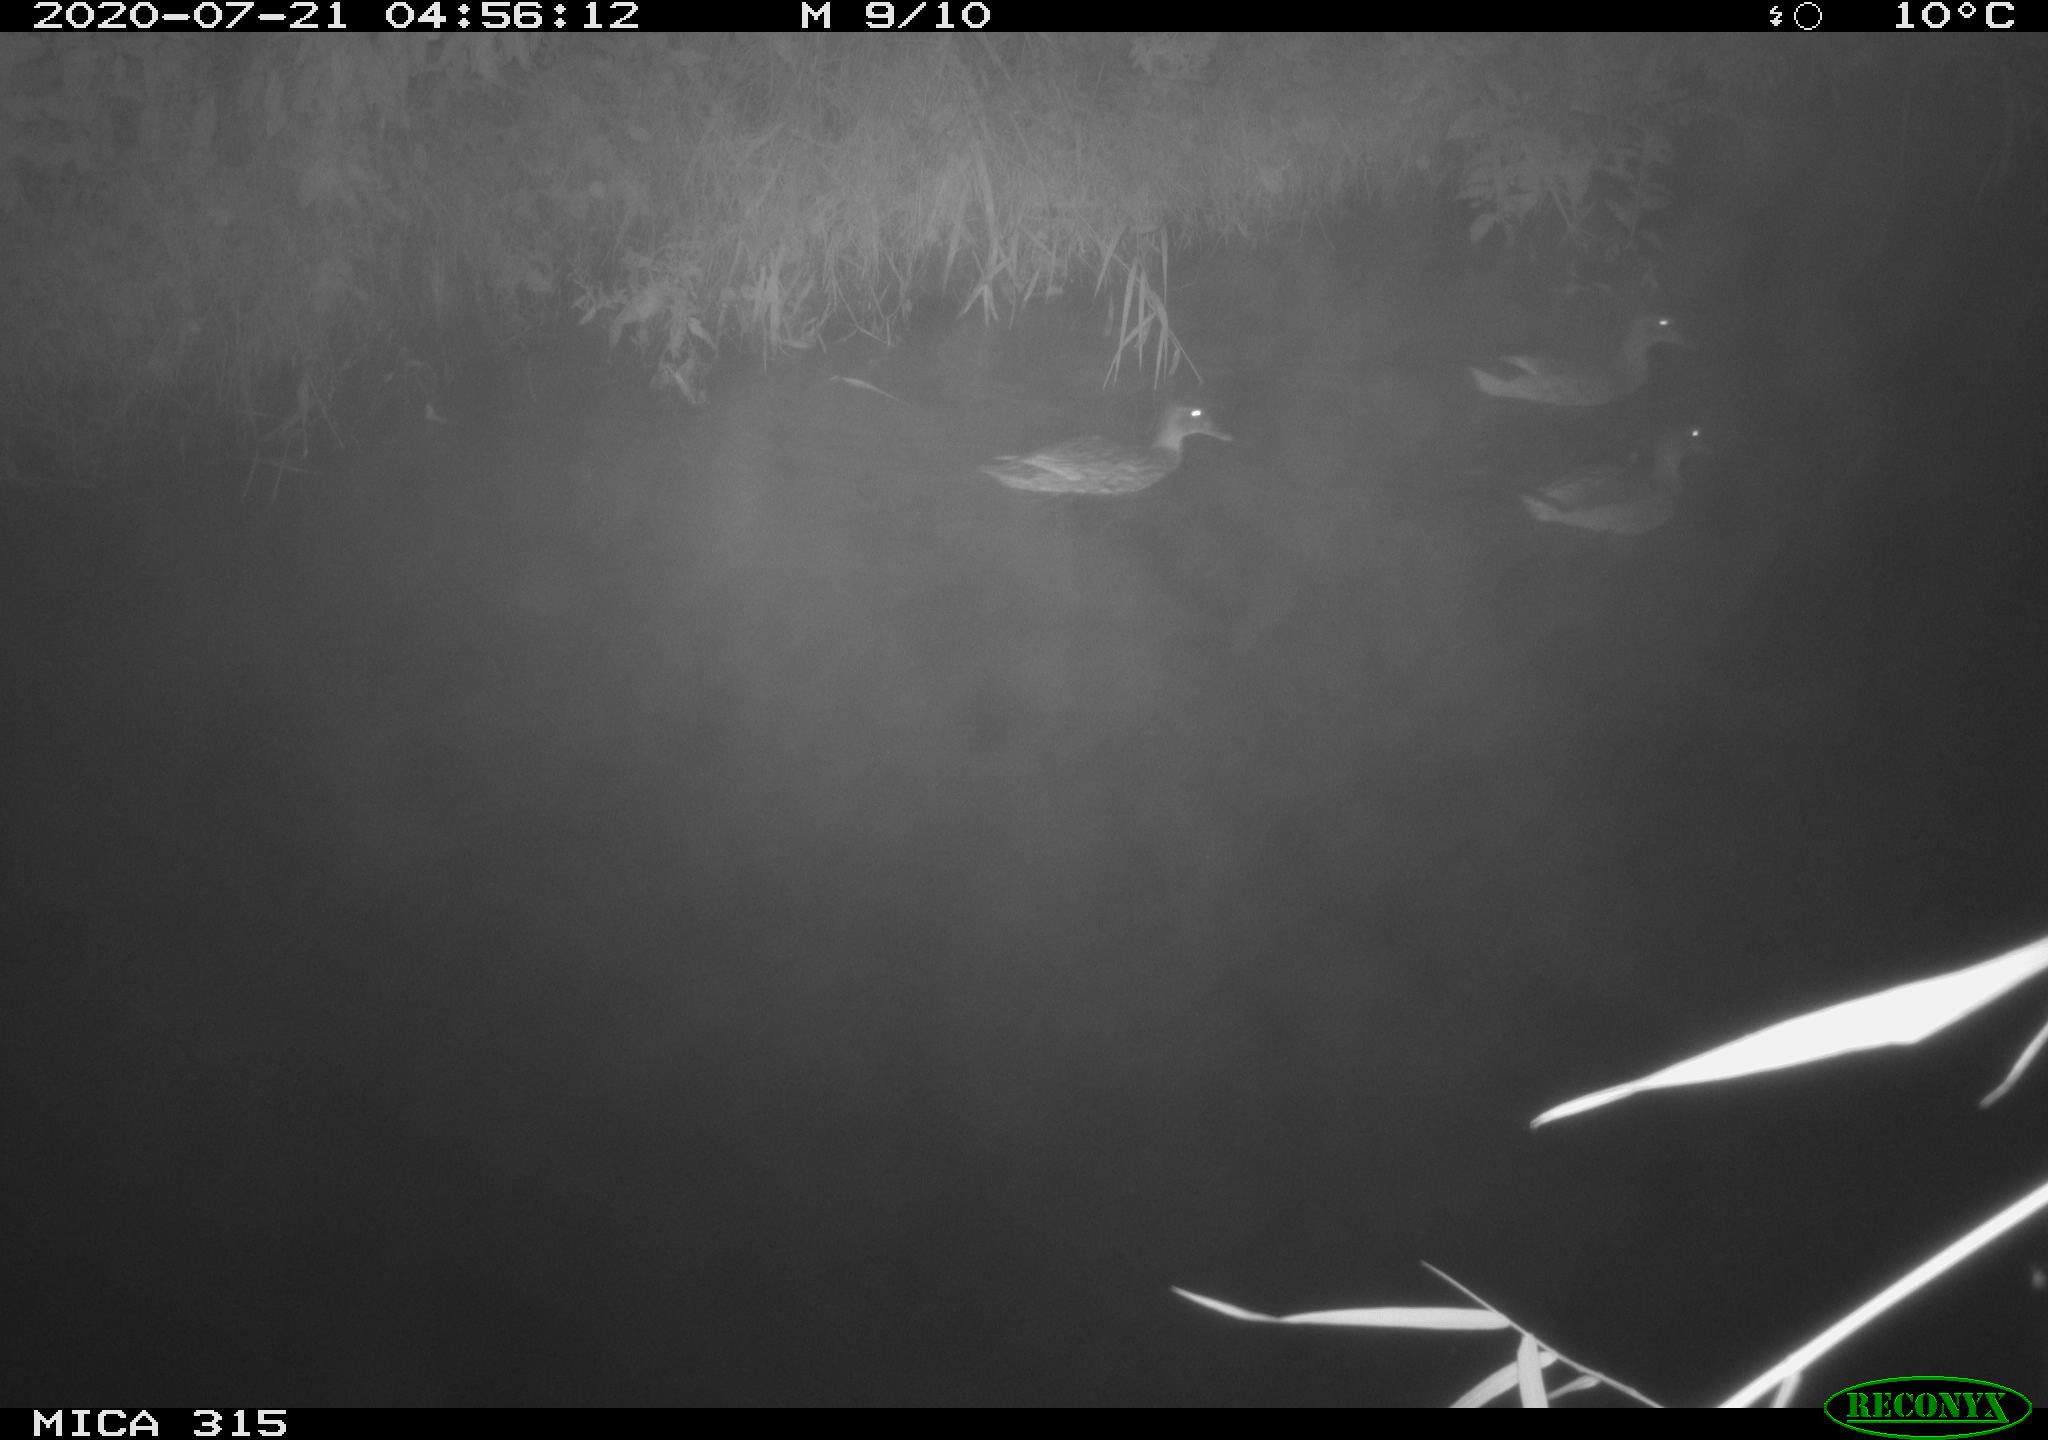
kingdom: Animalia
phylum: Chordata
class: Aves
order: Anseriformes
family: Anatidae
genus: Anas
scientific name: Anas platyrhynchos
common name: Mallard
